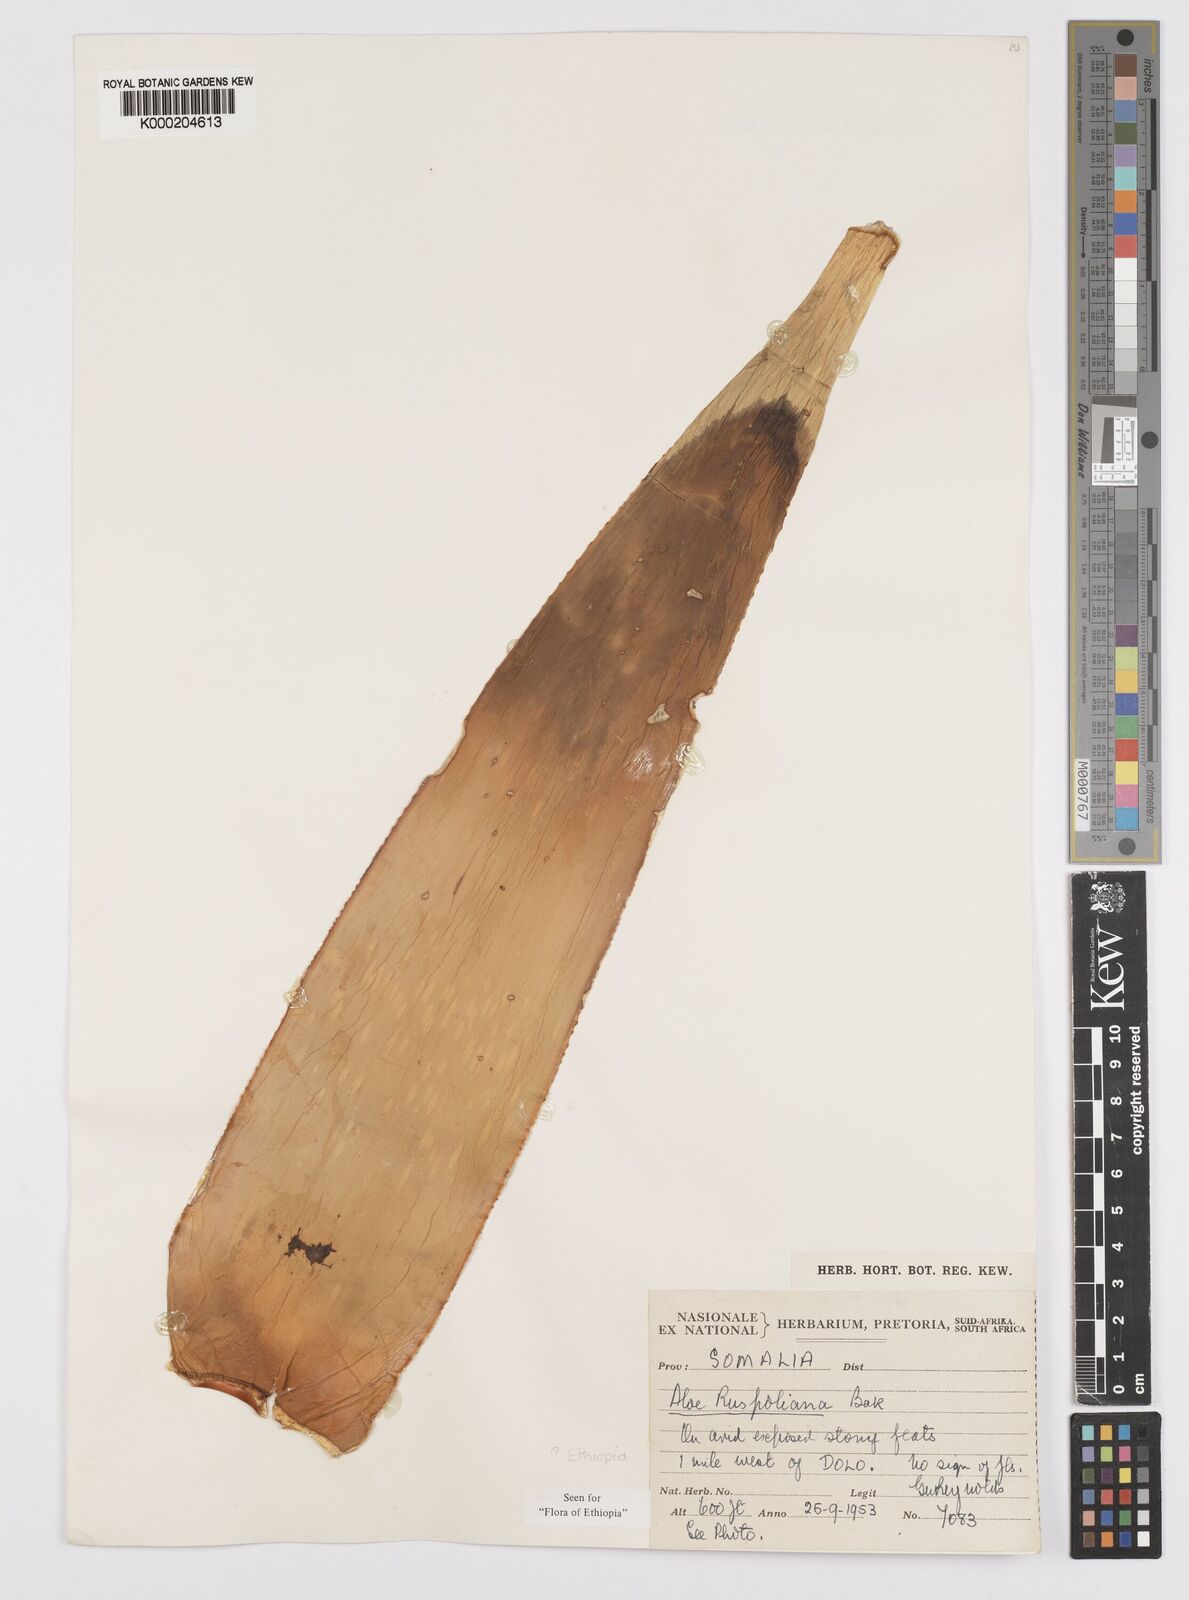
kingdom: Plantae
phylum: Tracheophyta
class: Liliopsida
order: Asparagales
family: Asphodelaceae
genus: Aloe
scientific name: Aloe ruspoliana
